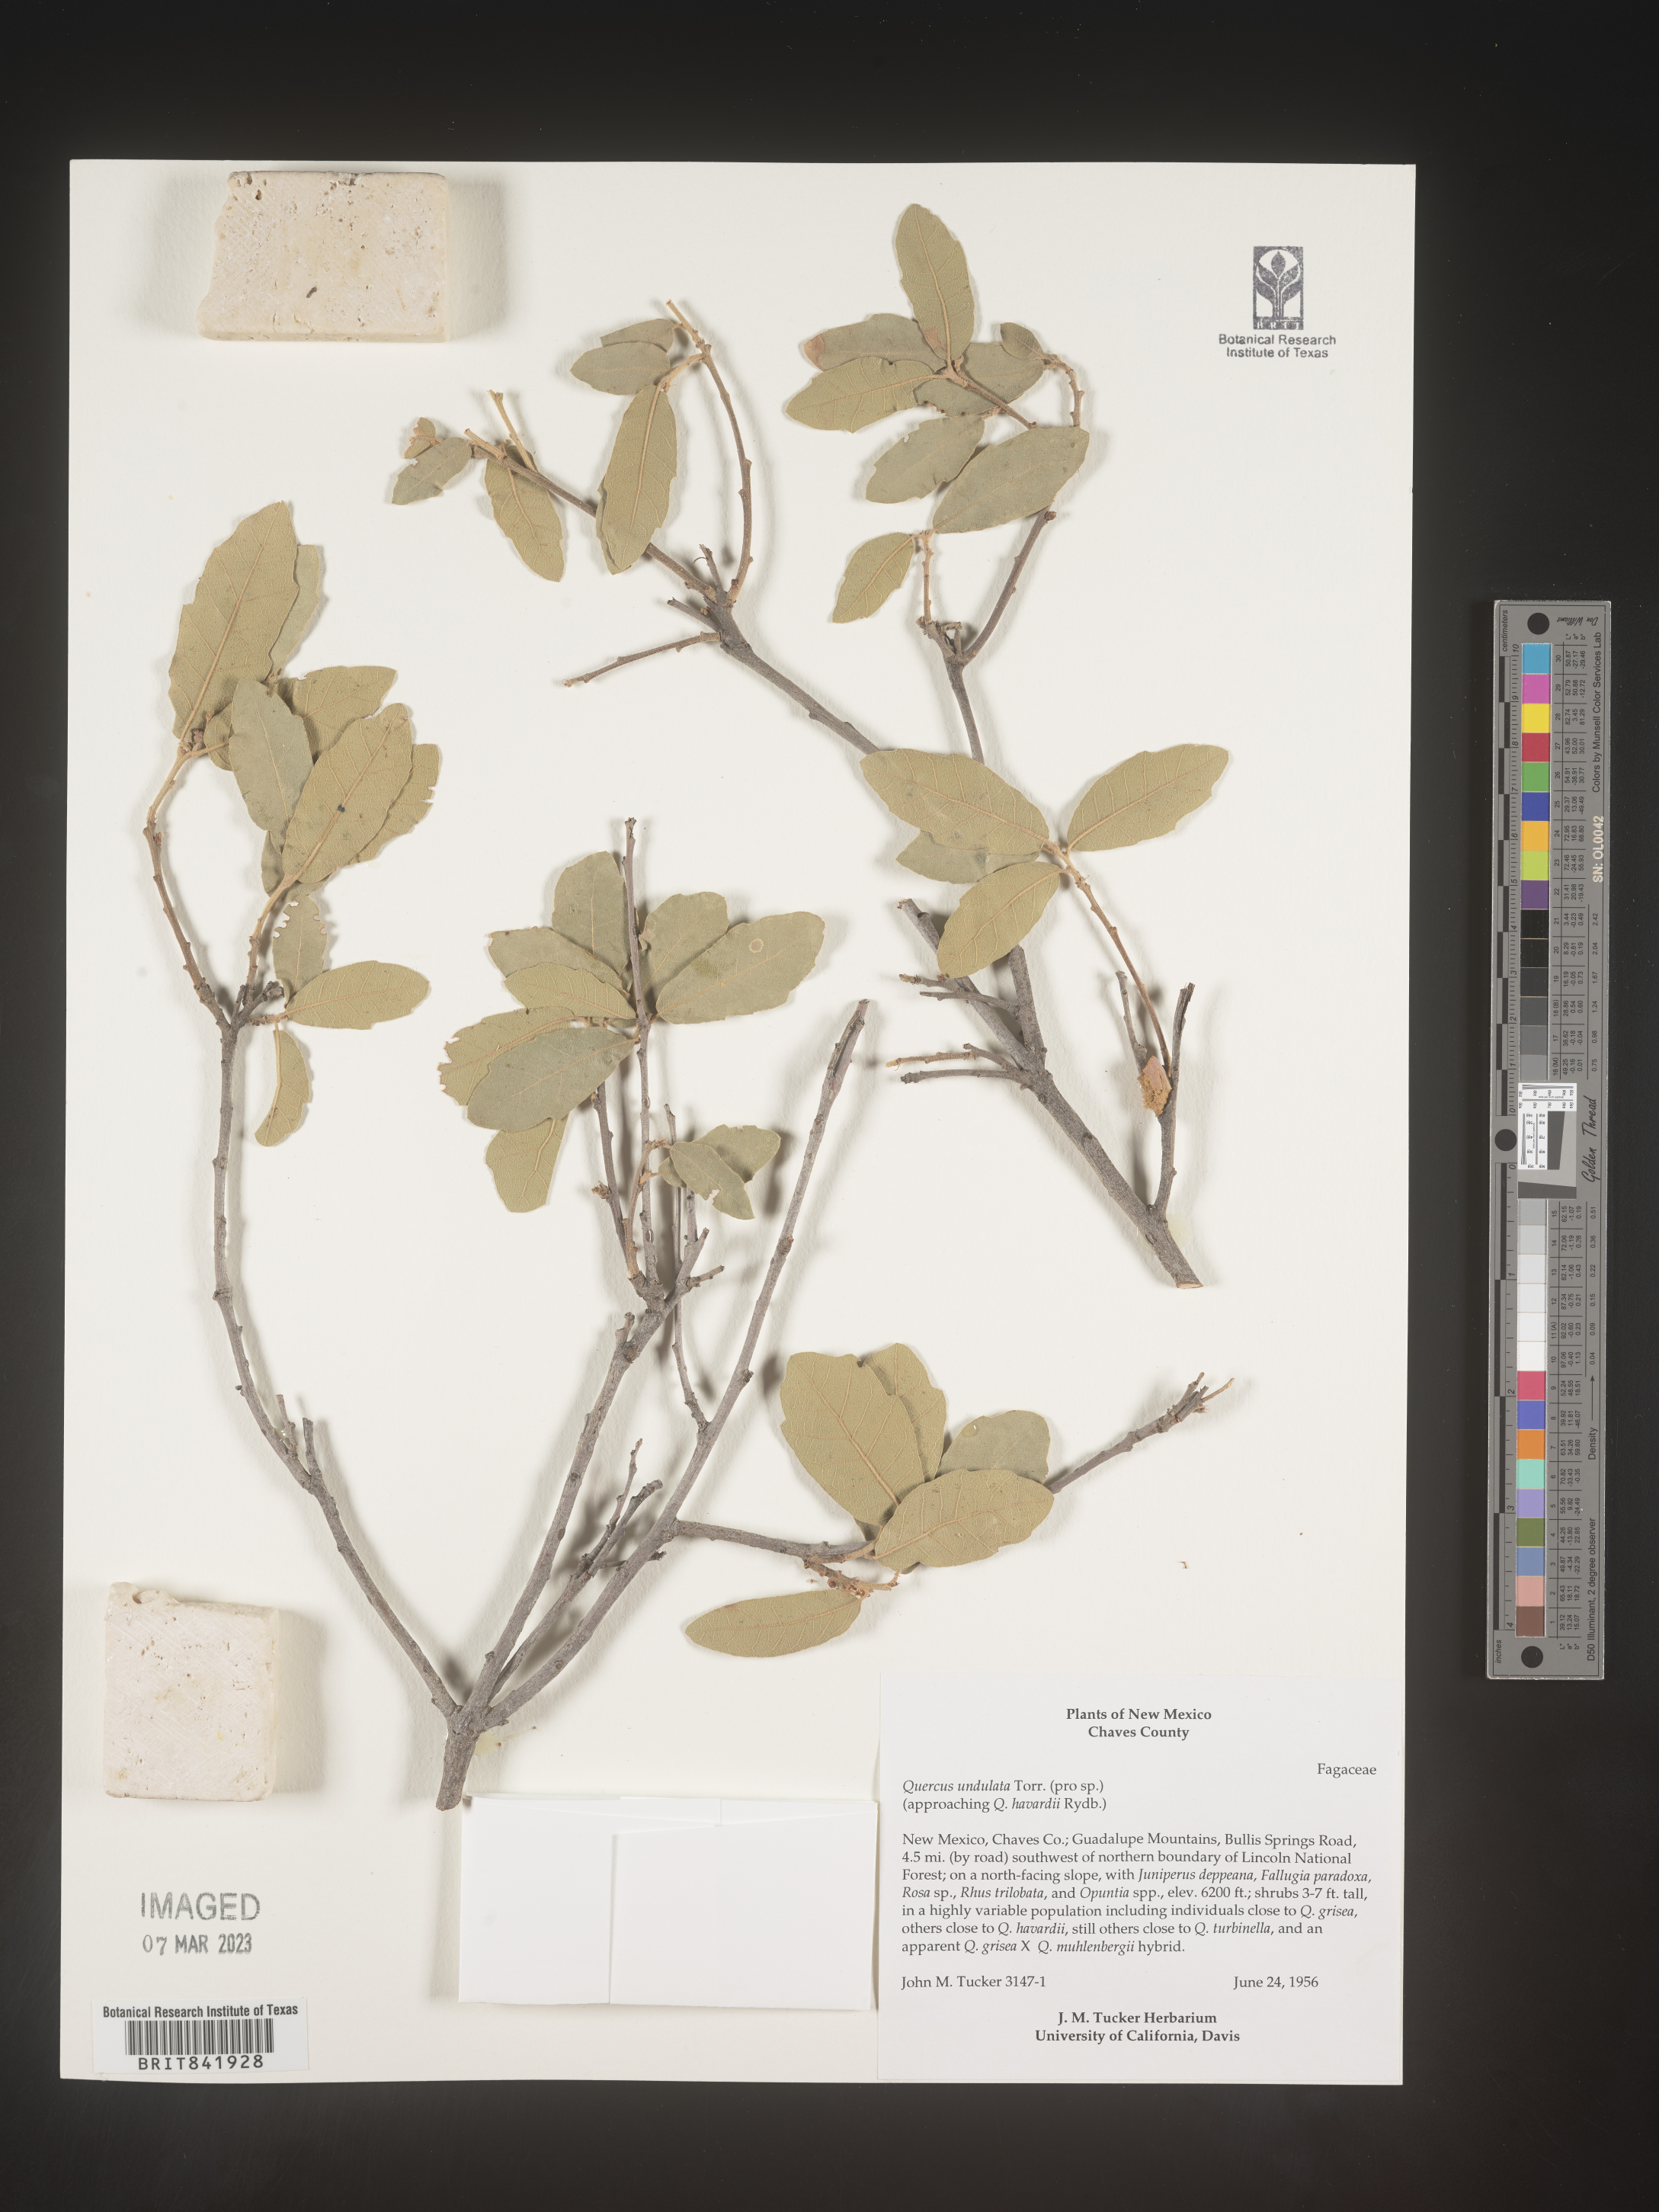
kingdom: Plantae
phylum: Tracheophyta
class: Magnoliopsida
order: Fagales
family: Fagaceae
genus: Quercus
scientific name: Quercus undulata
